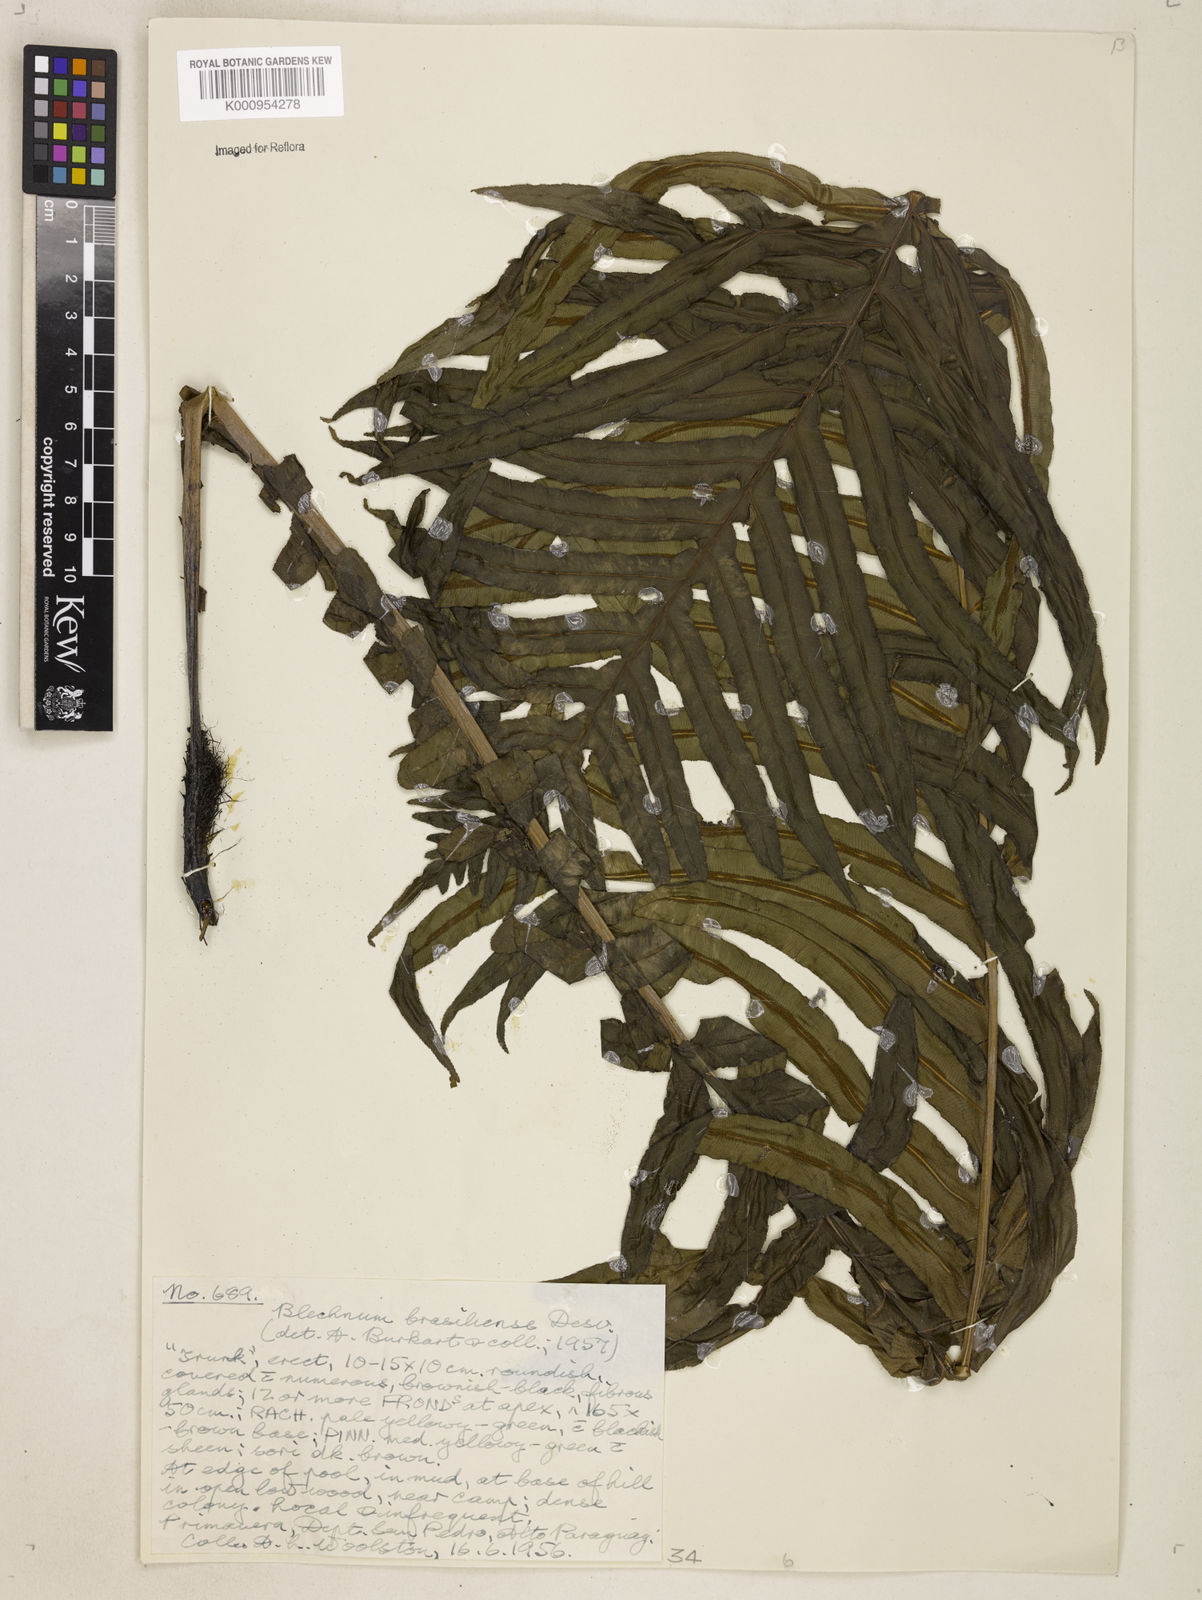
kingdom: Plantae
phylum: Tracheophyta
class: Polypodiopsida
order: Polypodiales
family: Blechnaceae
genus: Neoblechnum
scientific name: Neoblechnum brasiliense
